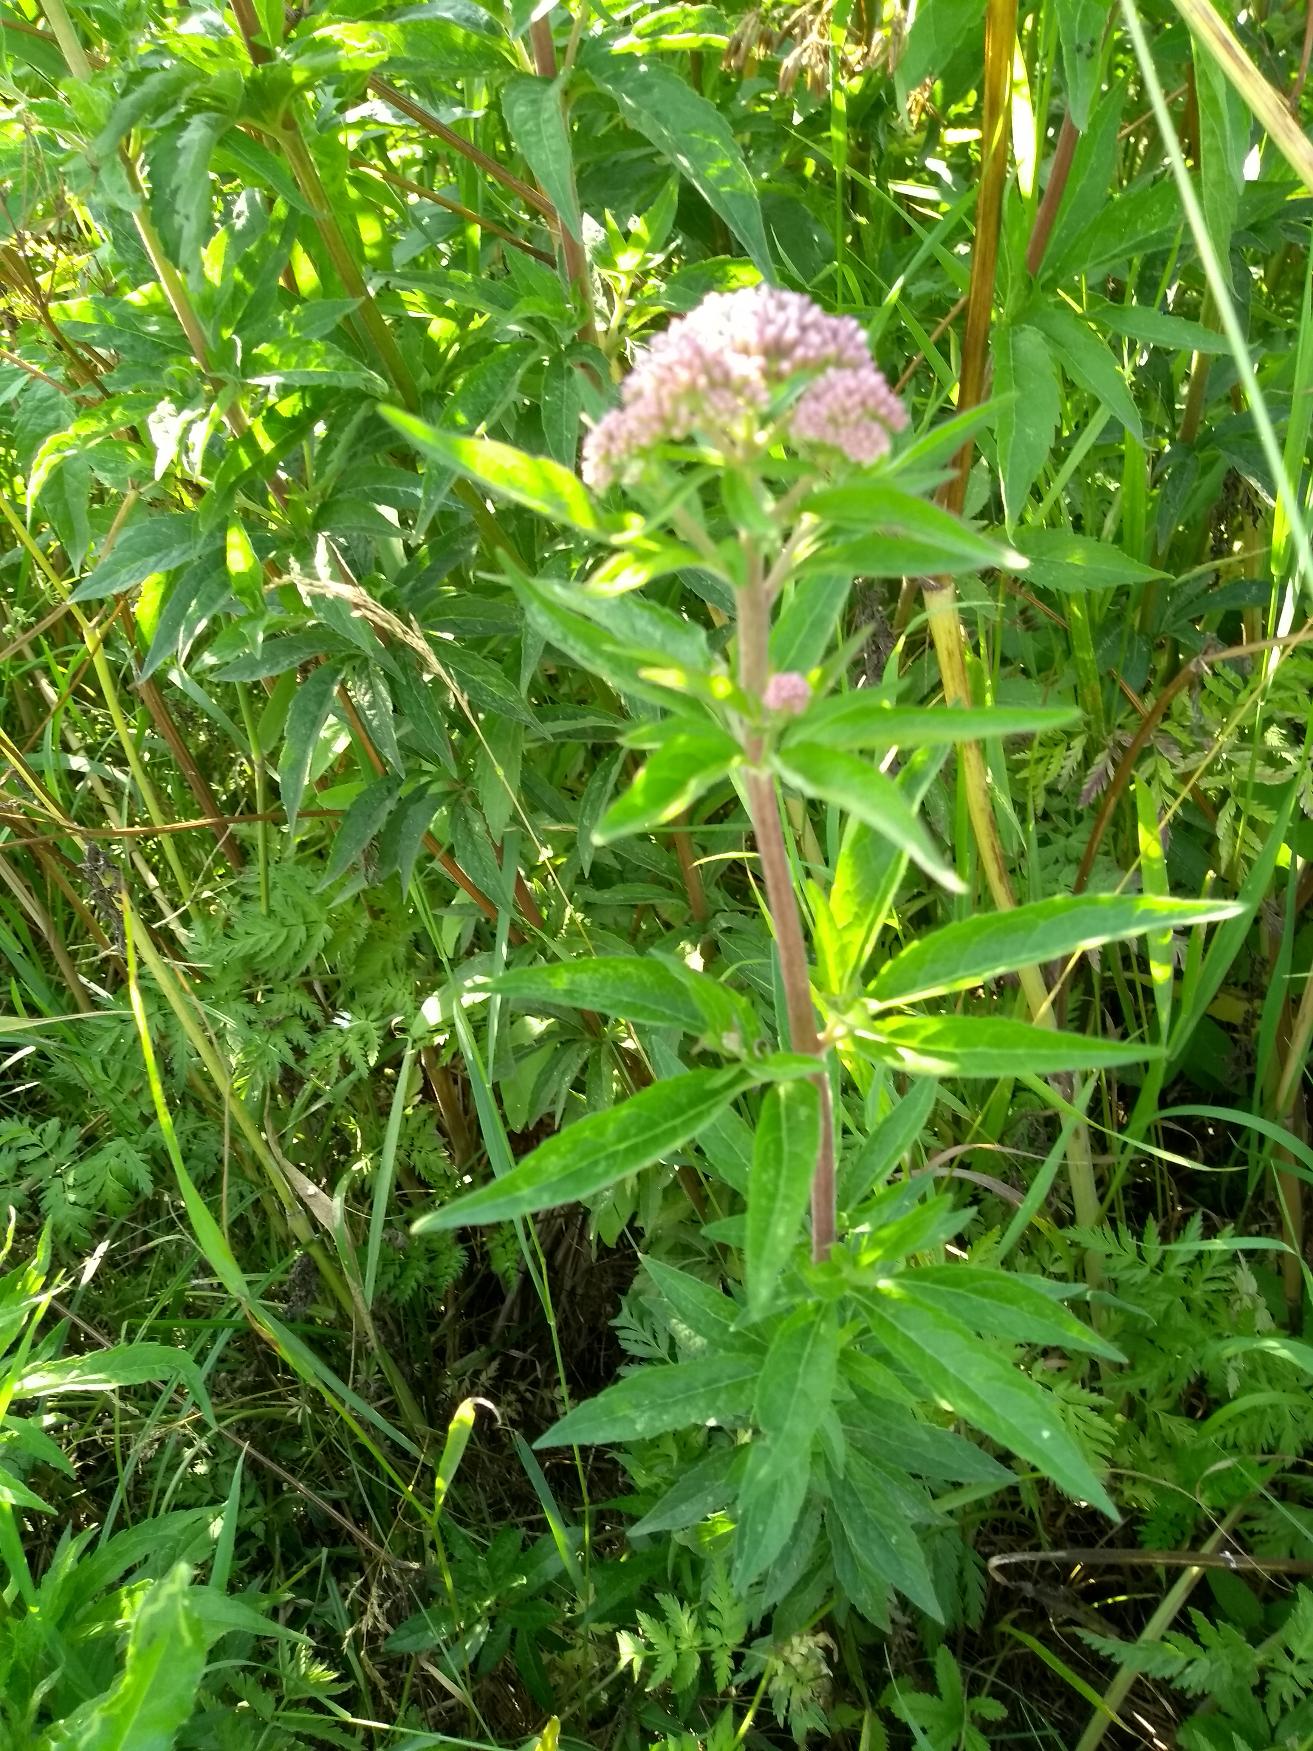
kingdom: Plantae
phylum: Tracheophyta
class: Magnoliopsida
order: Asterales
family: Asteraceae
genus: Eupatorium
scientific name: Eupatorium cannabinum
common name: Hjortetrøst
